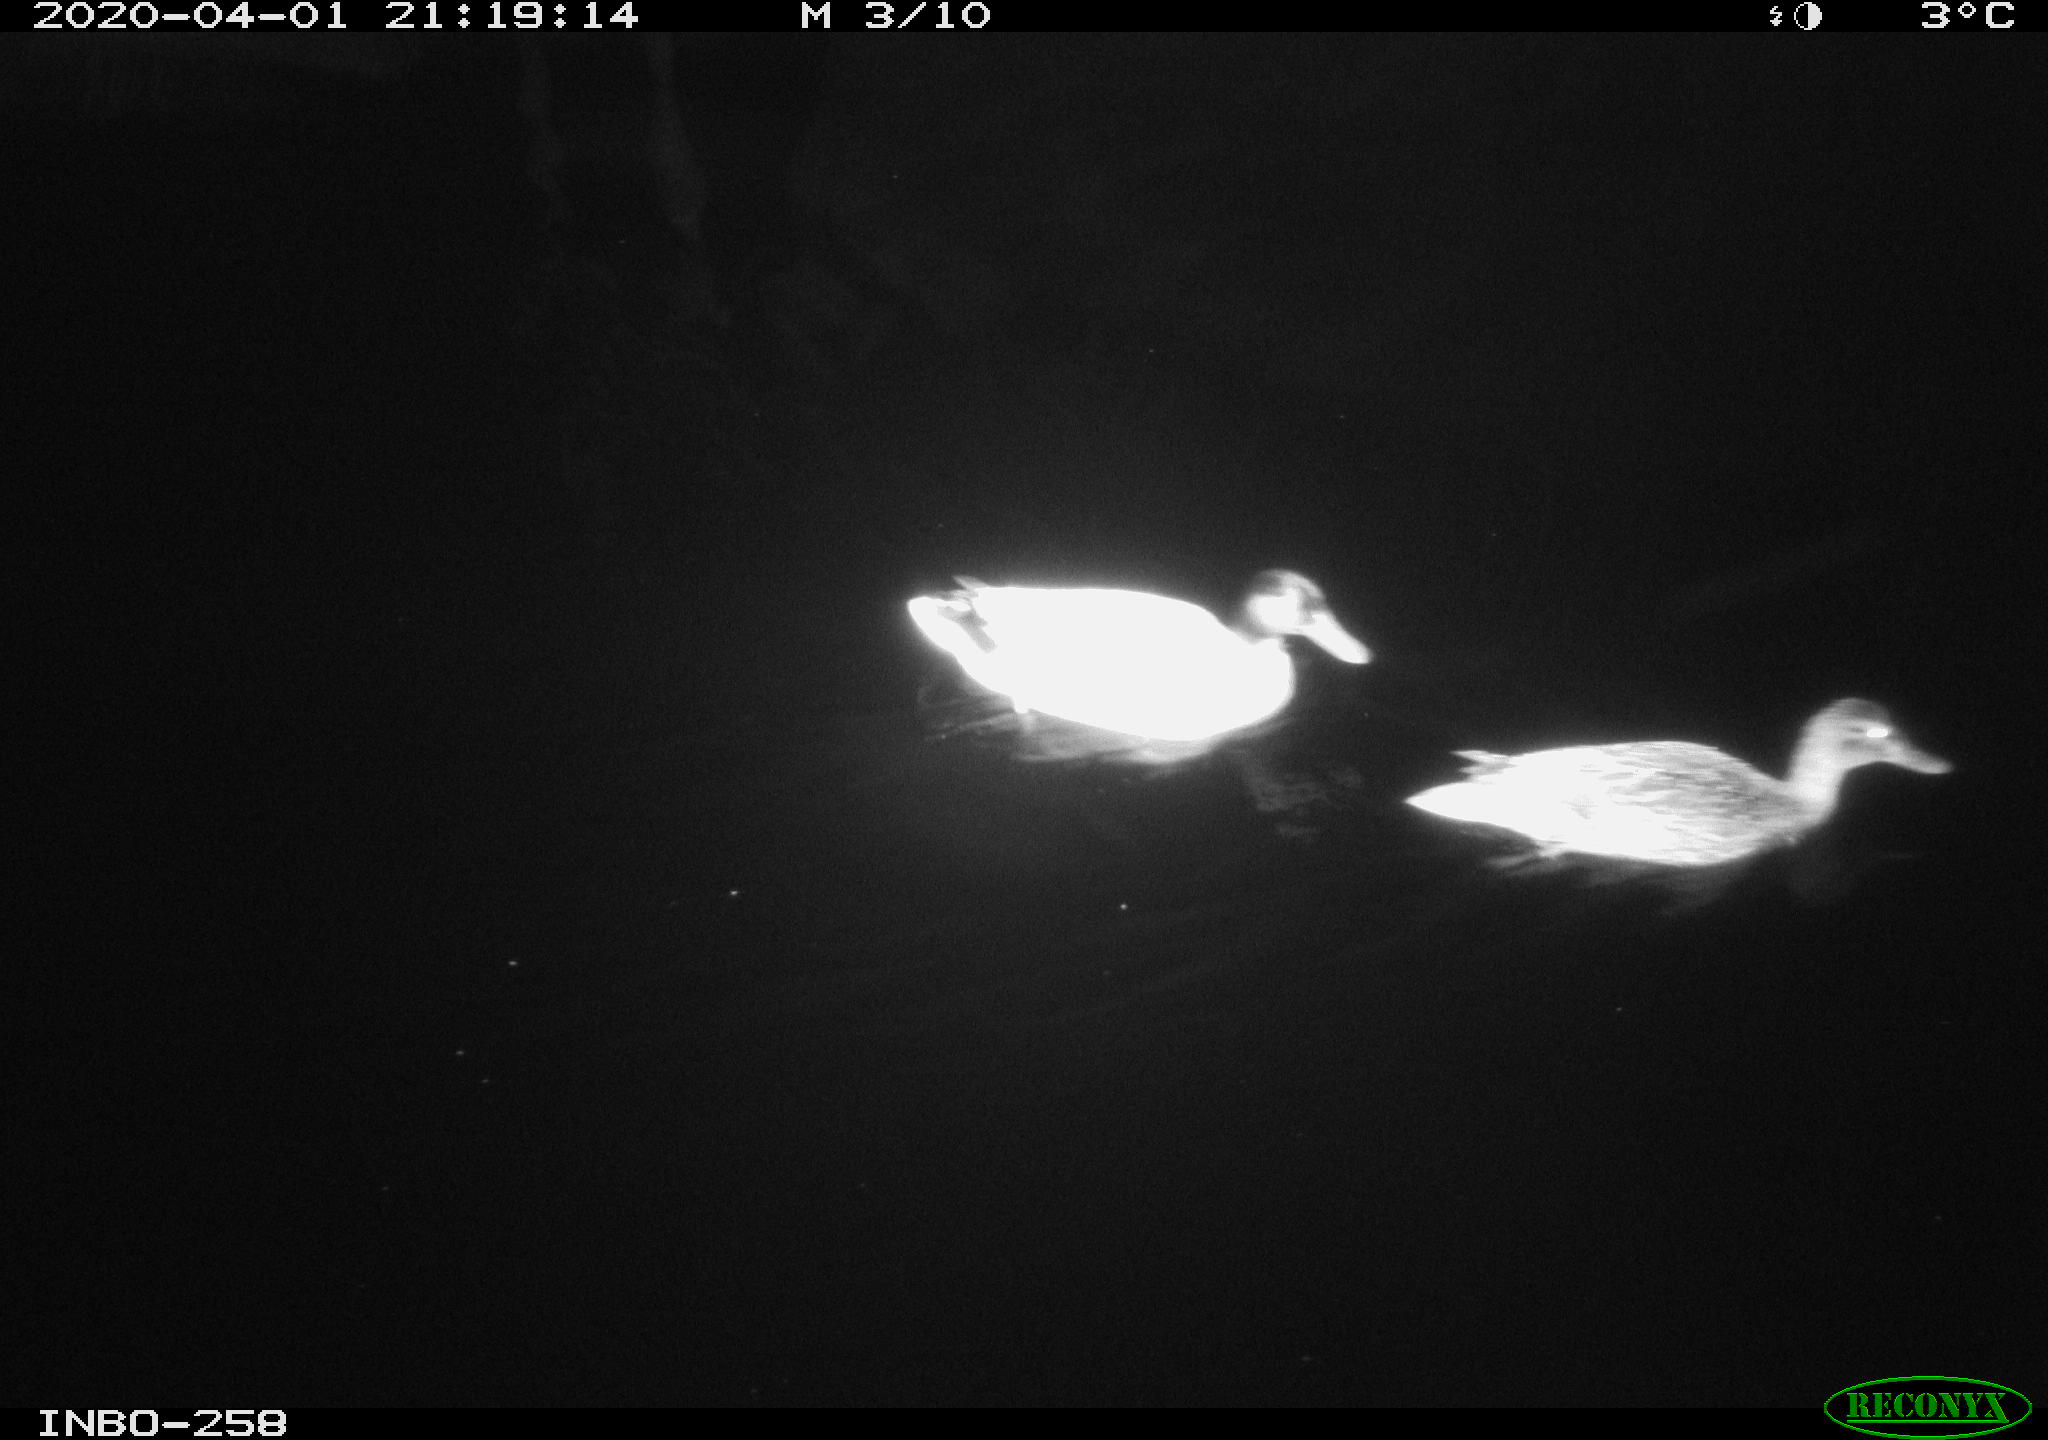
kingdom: Animalia
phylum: Chordata
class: Aves
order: Anseriformes
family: Anatidae
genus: Anas
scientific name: Anas platyrhynchos
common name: Mallard
